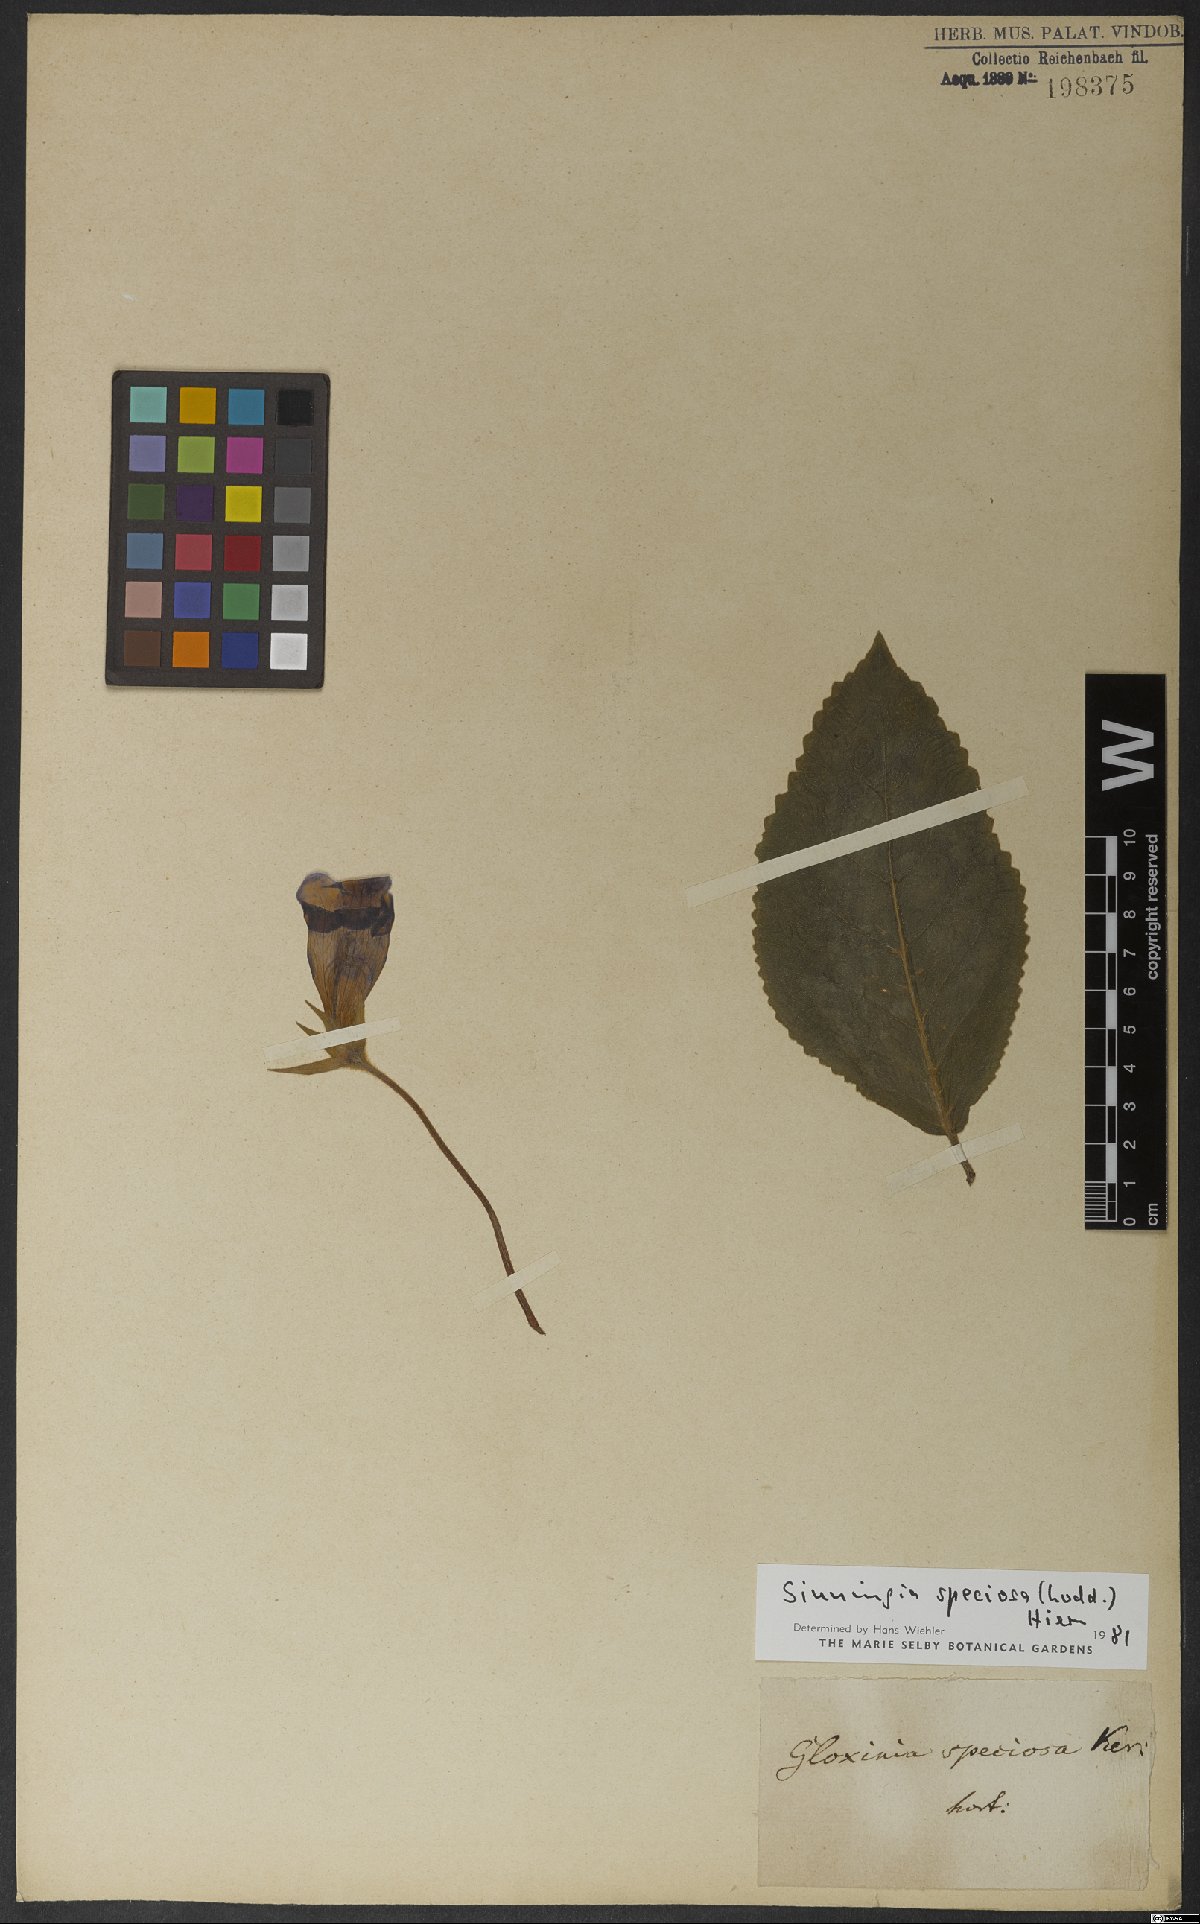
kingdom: Plantae
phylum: Tracheophyta
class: Magnoliopsida
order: Lamiales
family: Gesneriaceae
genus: Sinningia
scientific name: Sinningia speciosa
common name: Brazilian gloxinia
